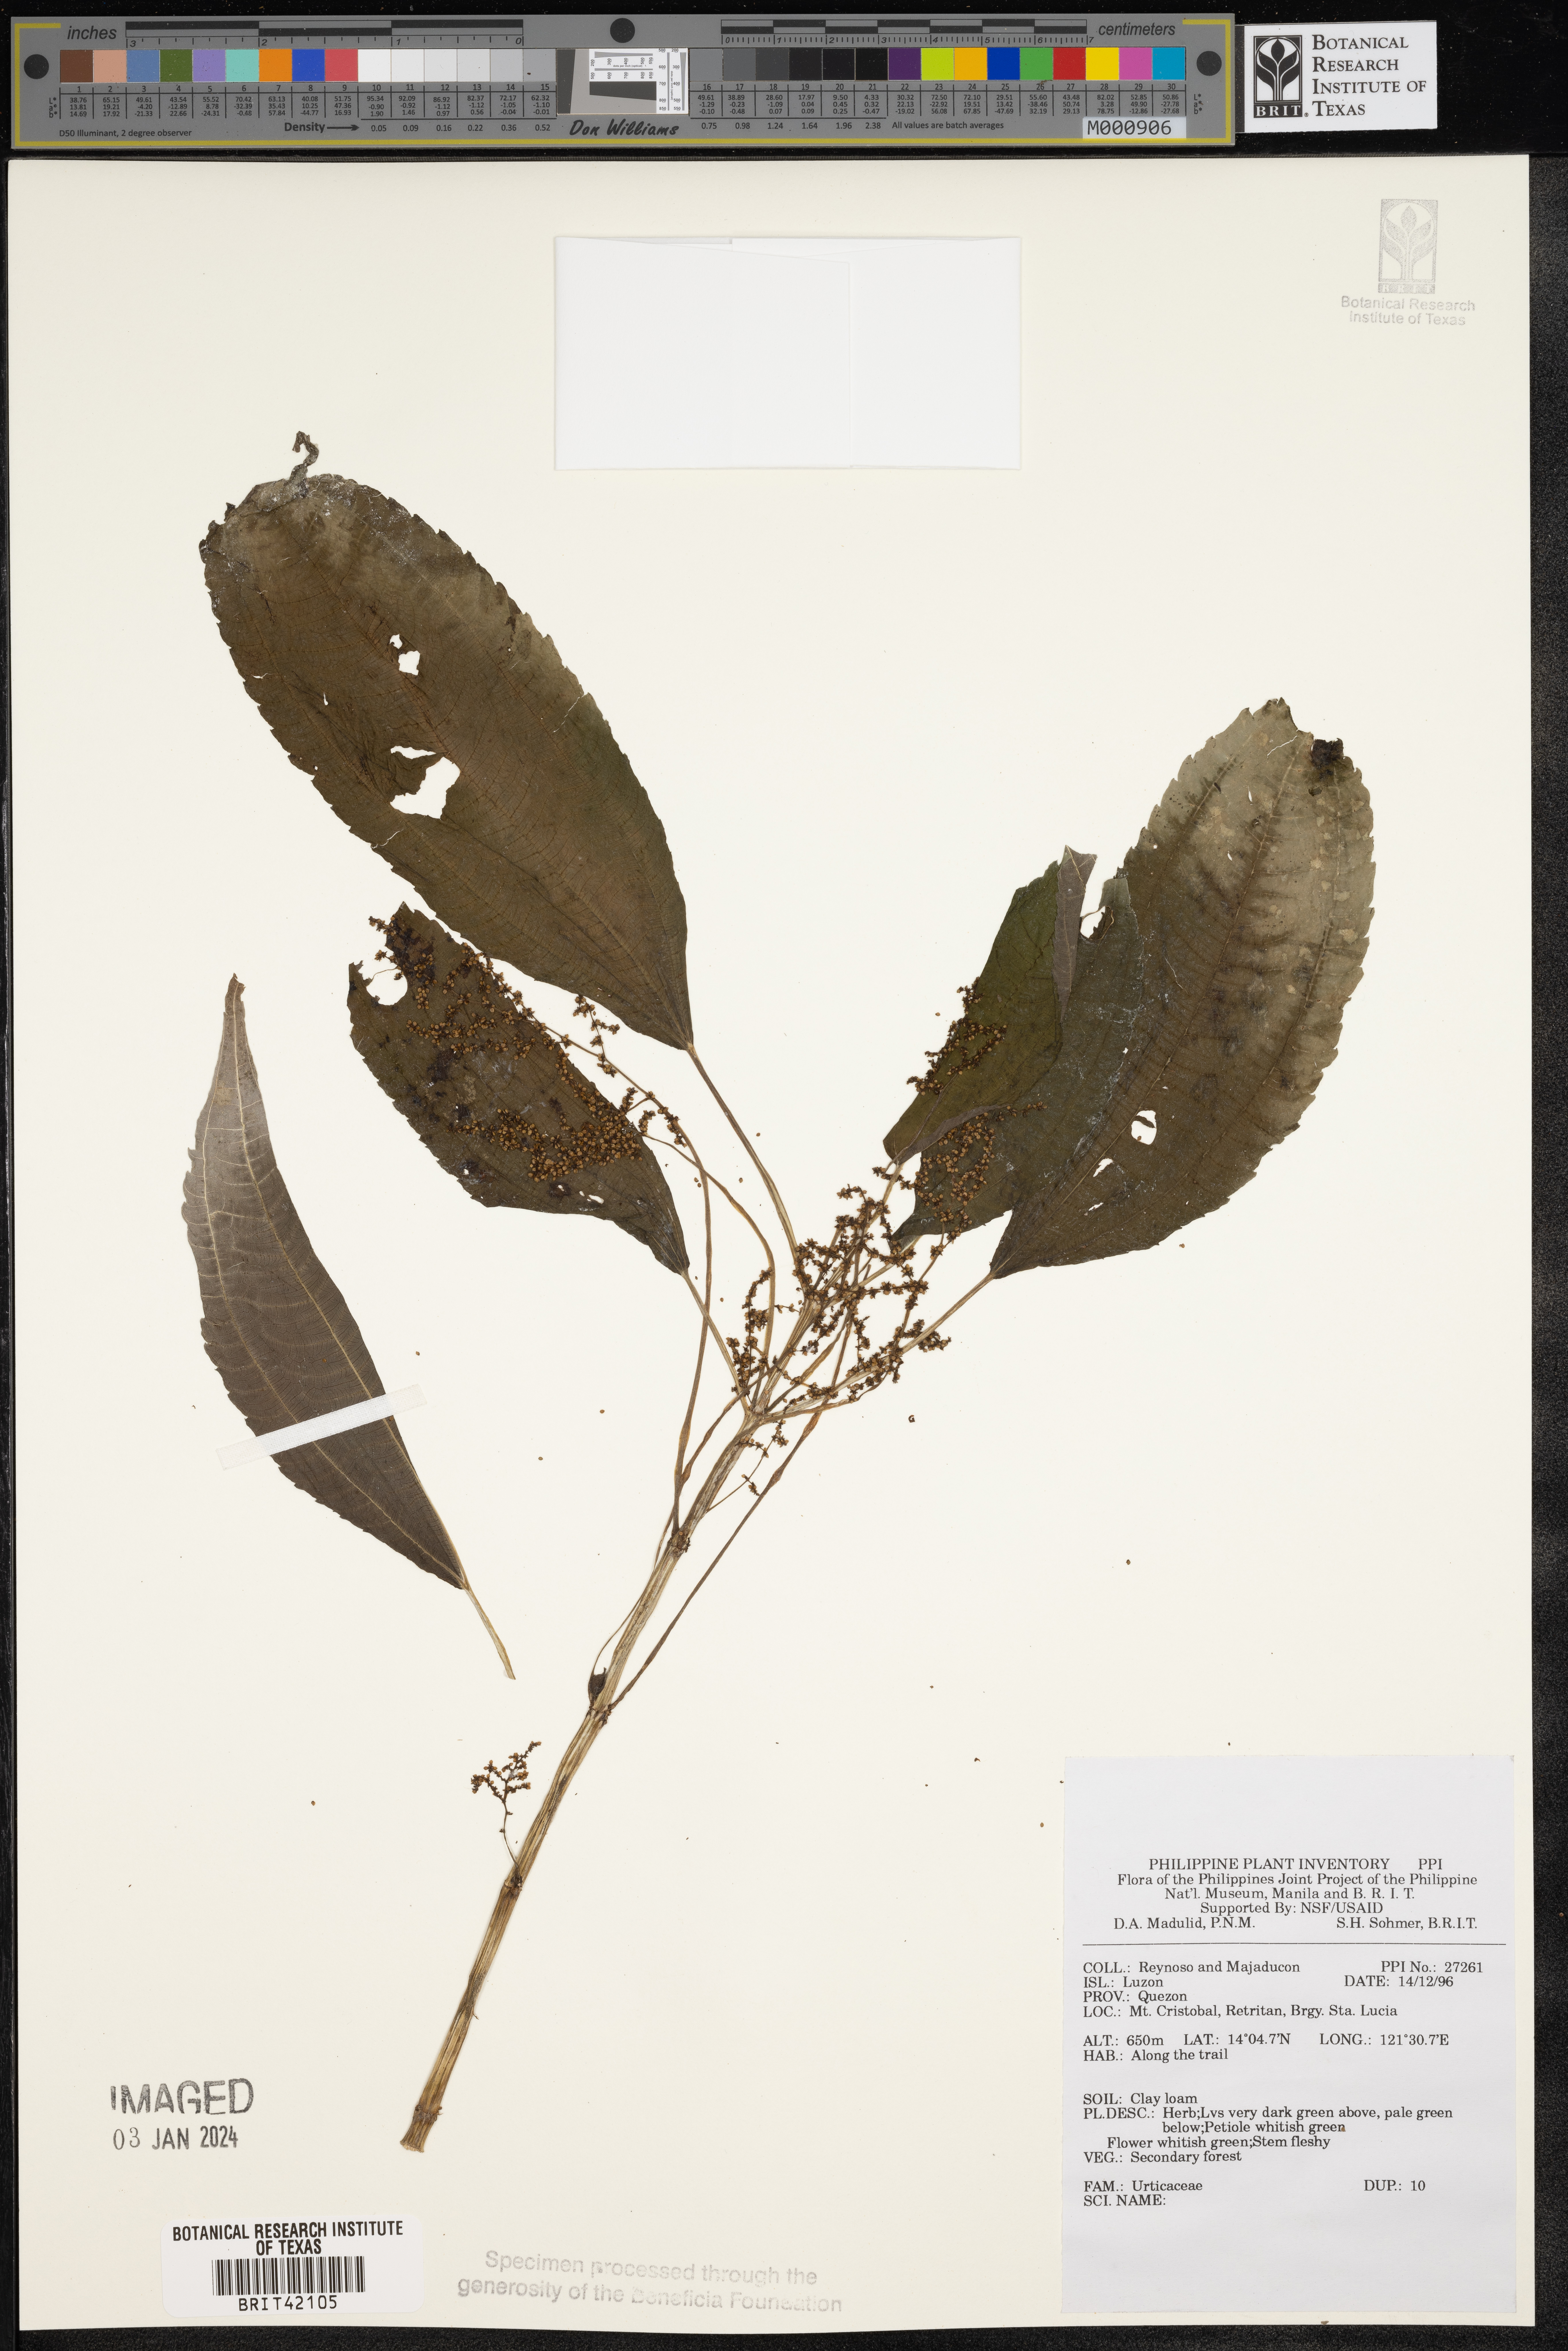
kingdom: Plantae
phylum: Tracheophyta
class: Magnoliopsida
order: Rosales
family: Urticaceae
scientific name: Urticaceae
